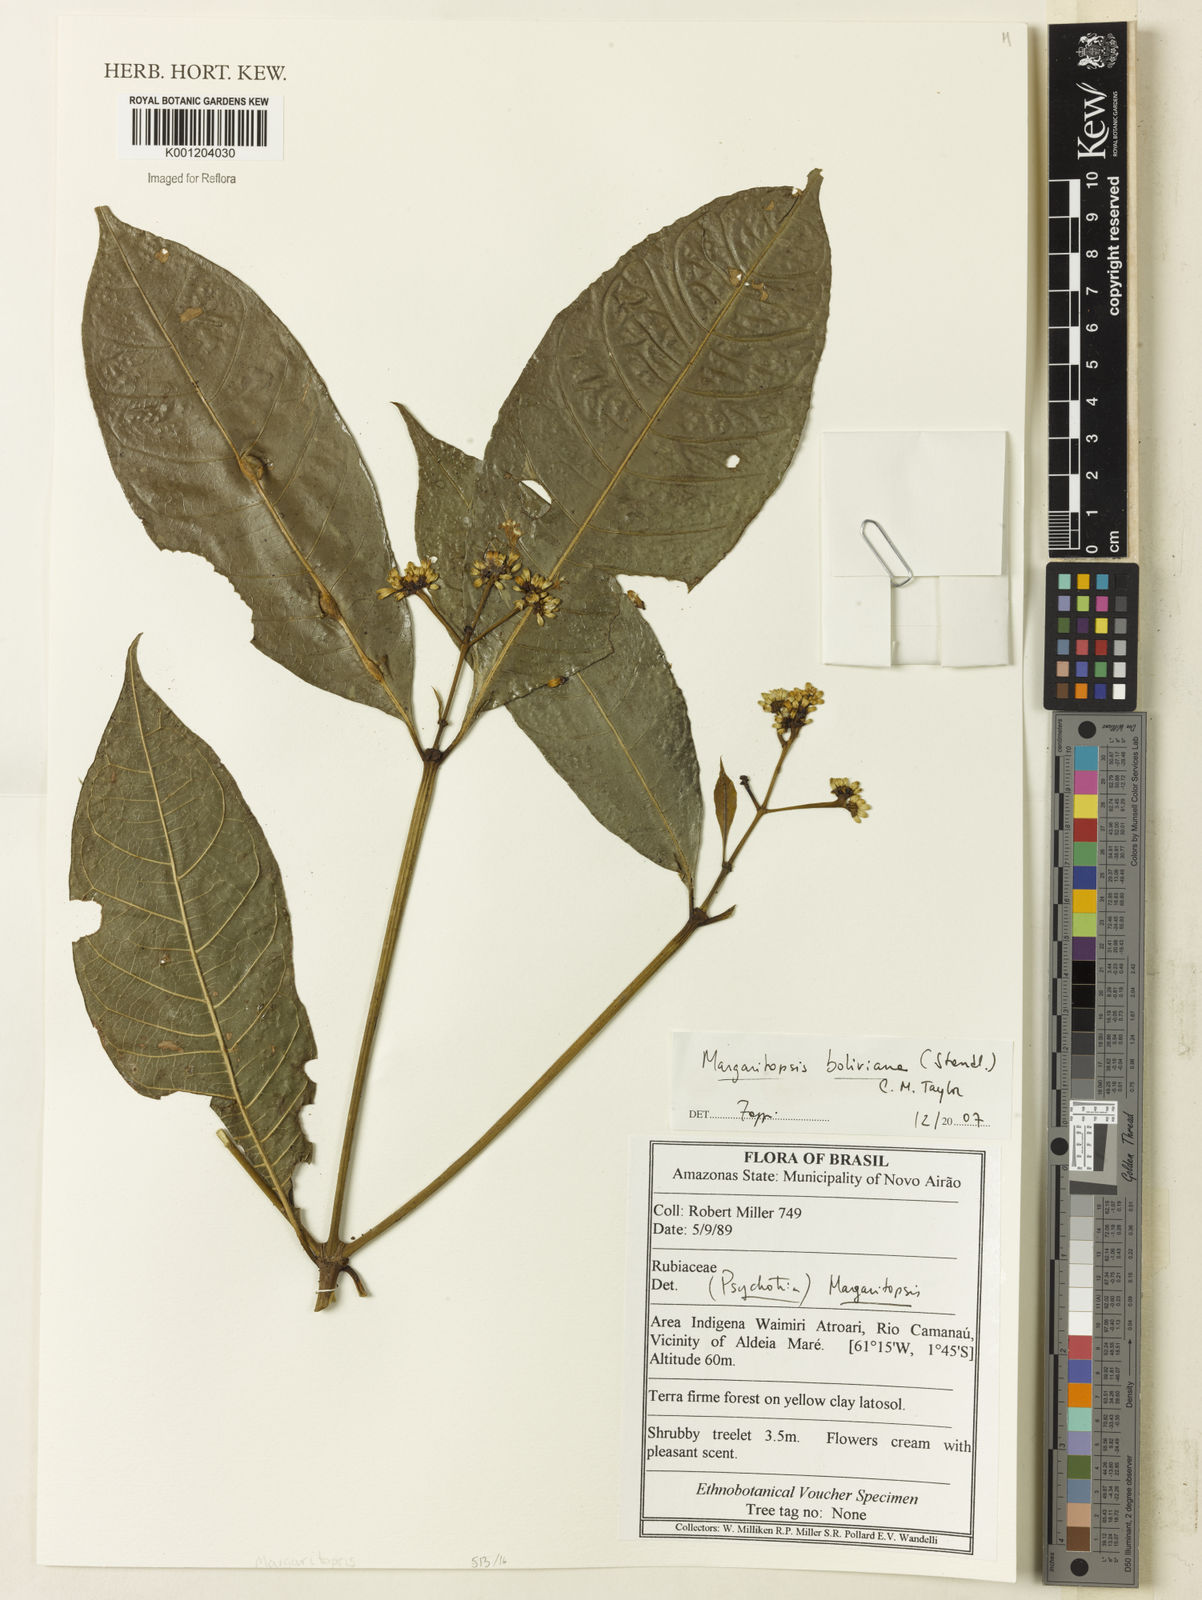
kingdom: Plantae
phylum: Tracheophyta
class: Magnoliopsida
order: Gentianales
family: Rubiaceae
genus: Eumachia
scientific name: Eumachia boliviana
